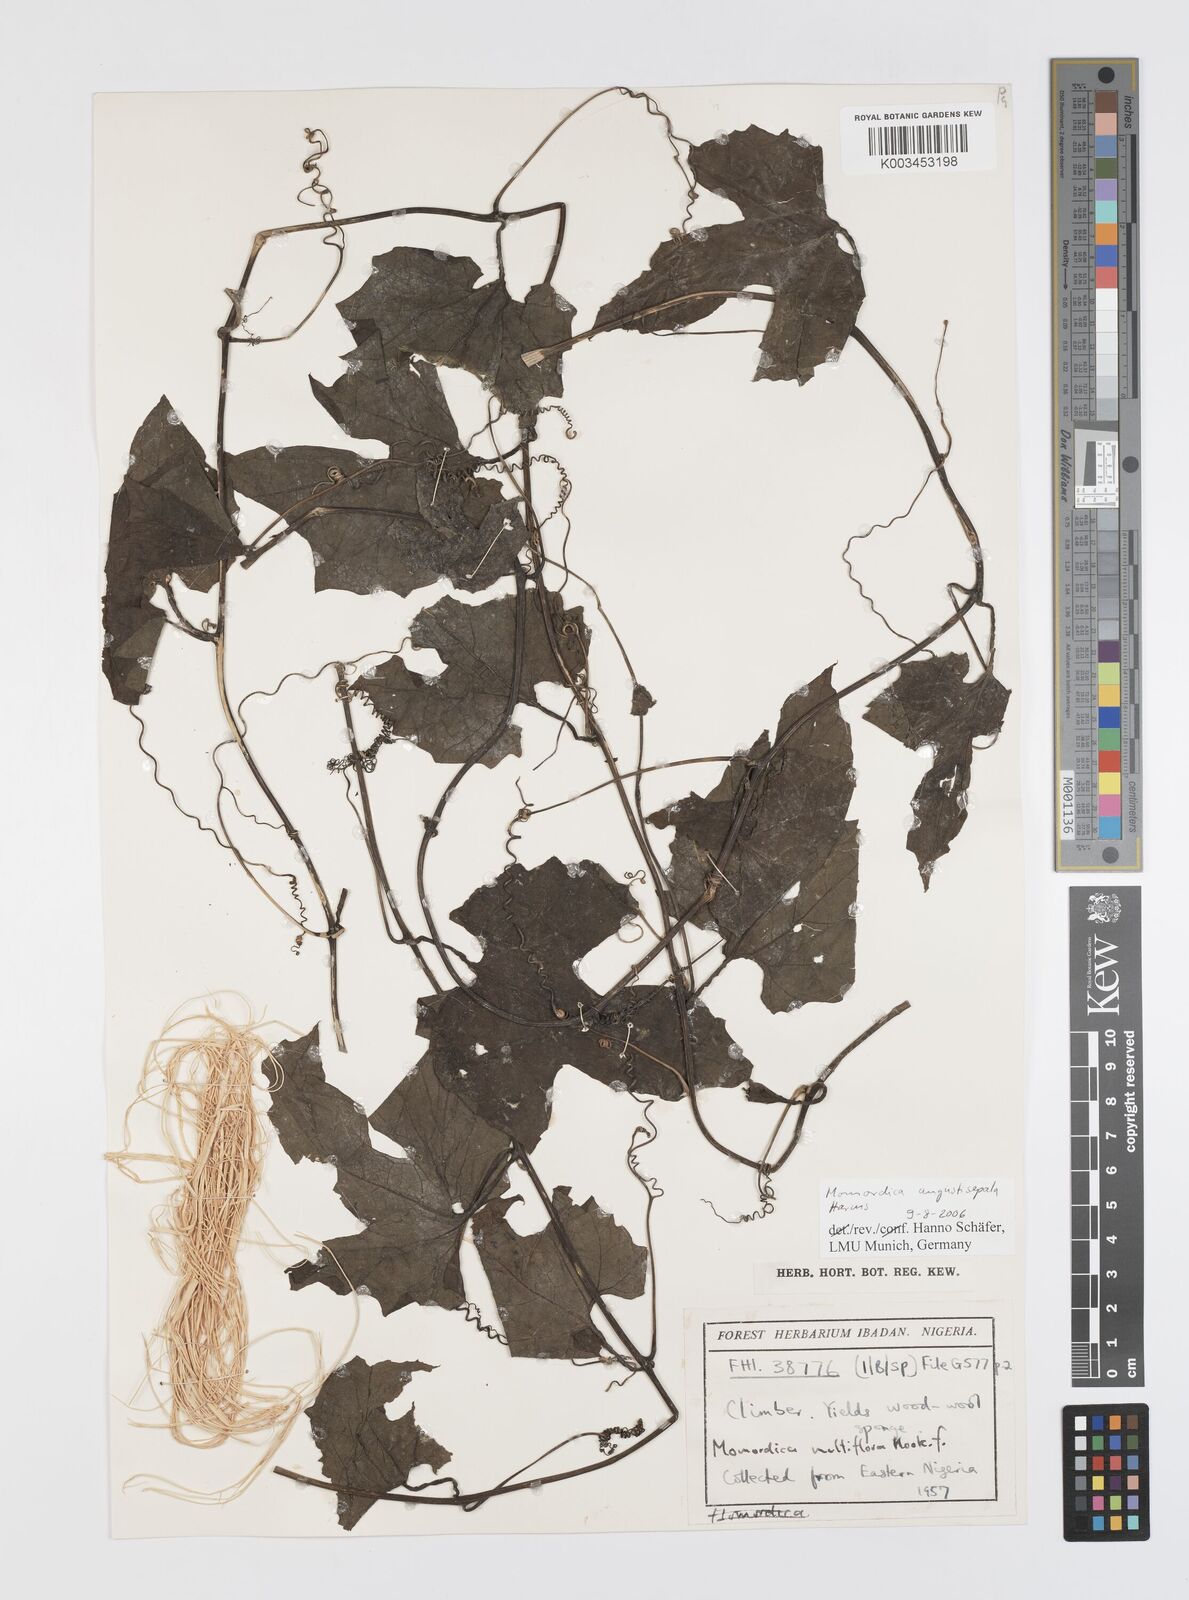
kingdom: Plantae
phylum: Tracheophyta
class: Magnoliopsida
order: Cucurbitales
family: Cucurbitaceae
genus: Momordica
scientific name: Momordica angustisepala
